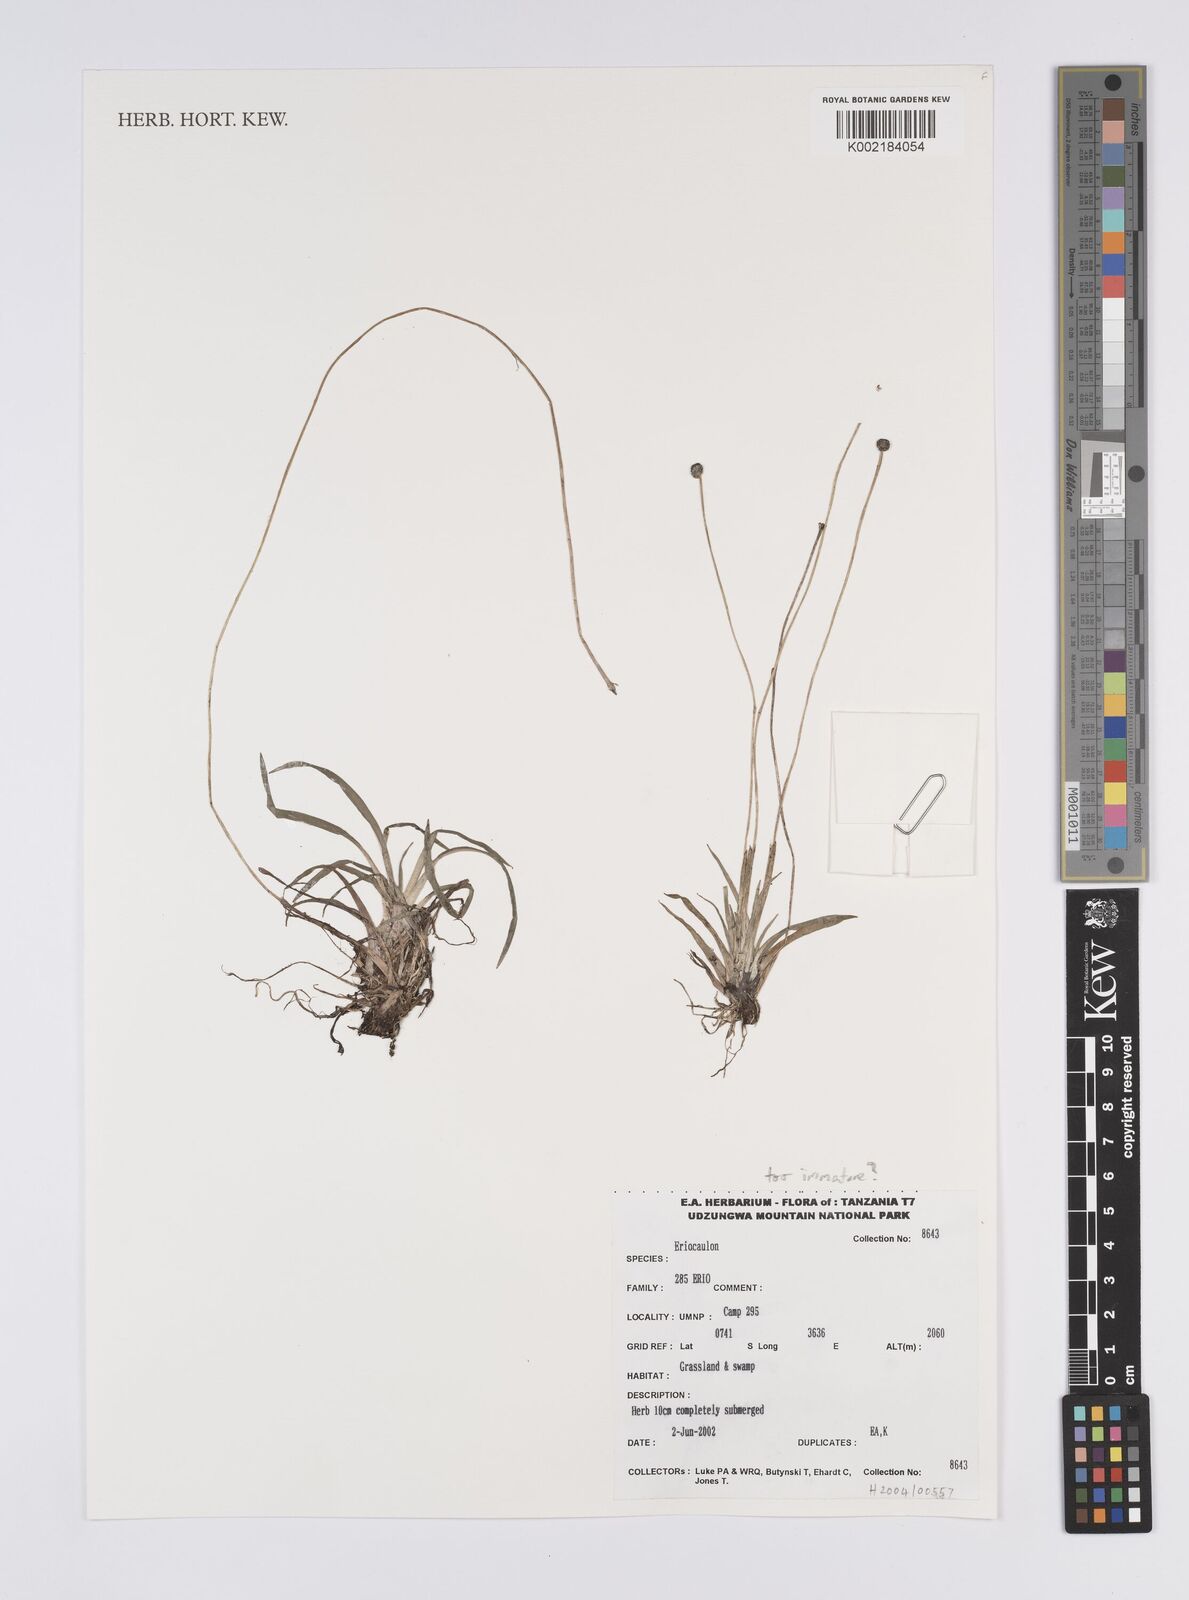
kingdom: Plantae
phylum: Tracheophyta
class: Liliopsida
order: Poales
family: Eriocaulaceae
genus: Eriocaulon
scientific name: Eriocaulon
